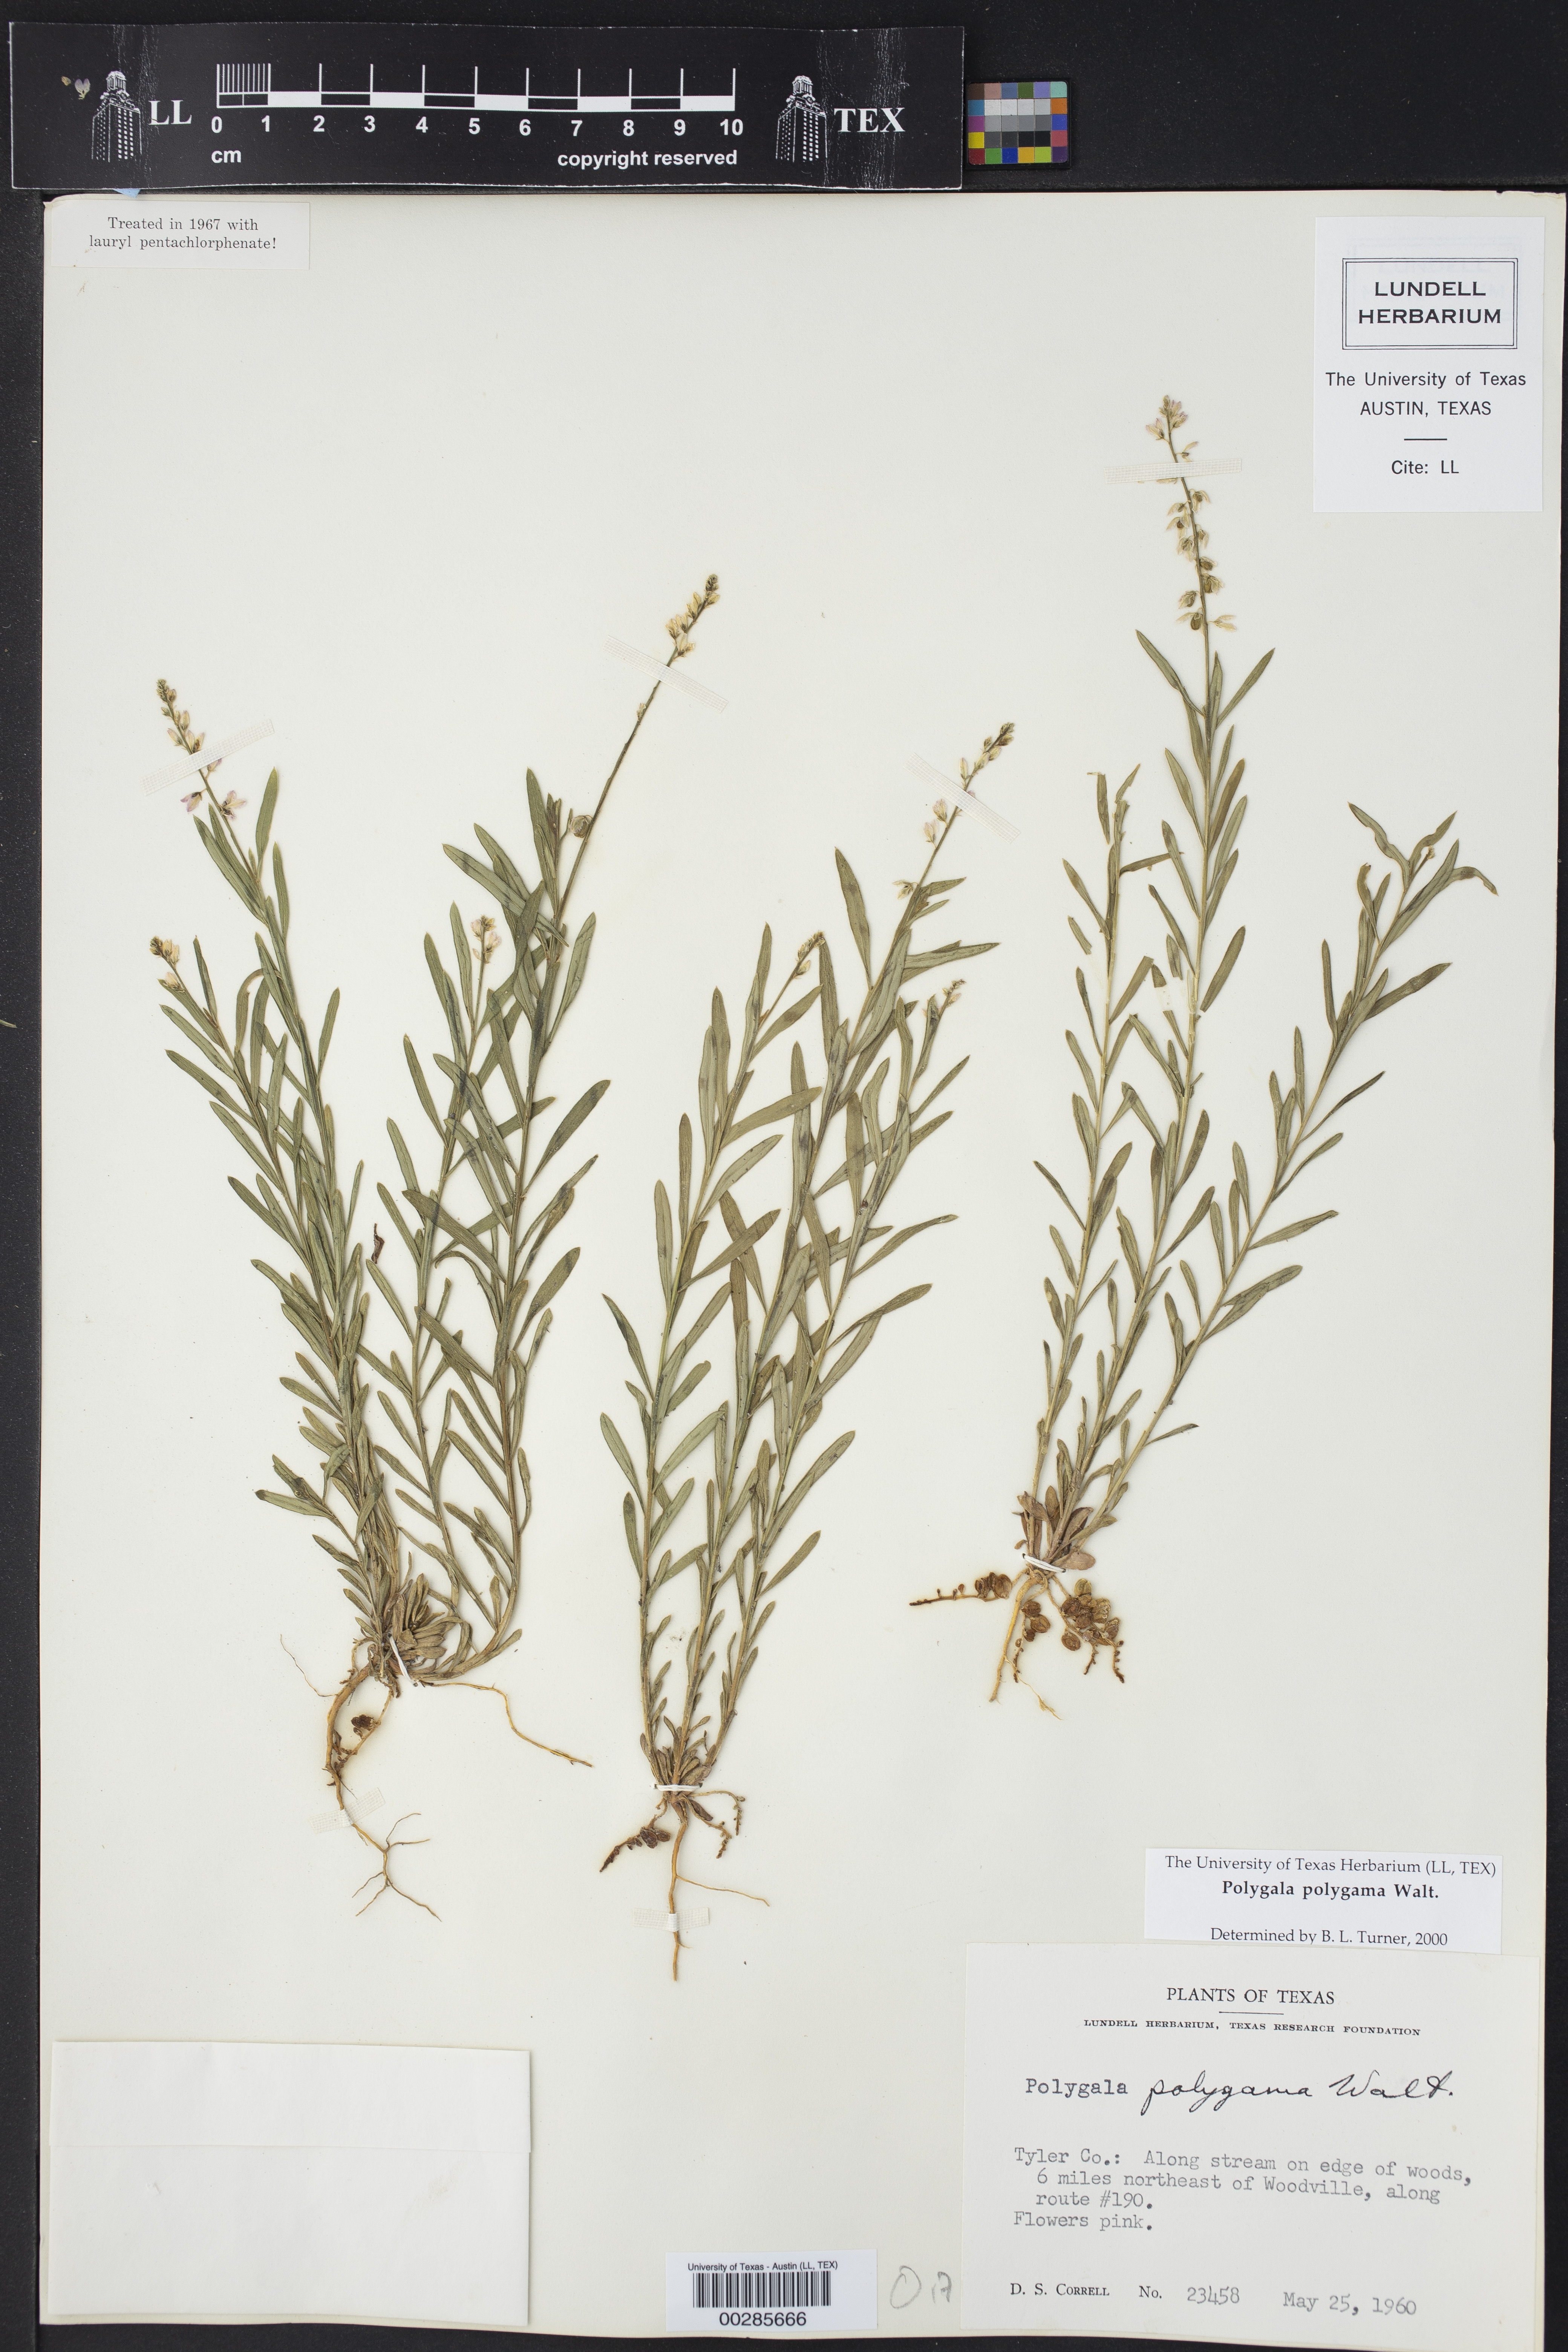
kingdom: Plantae
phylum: Tracheophyta
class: Magnoliopsida
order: Fabales
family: Polygalaceae
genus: Polygala
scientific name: Polygala polygama
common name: Bitter milkwort
